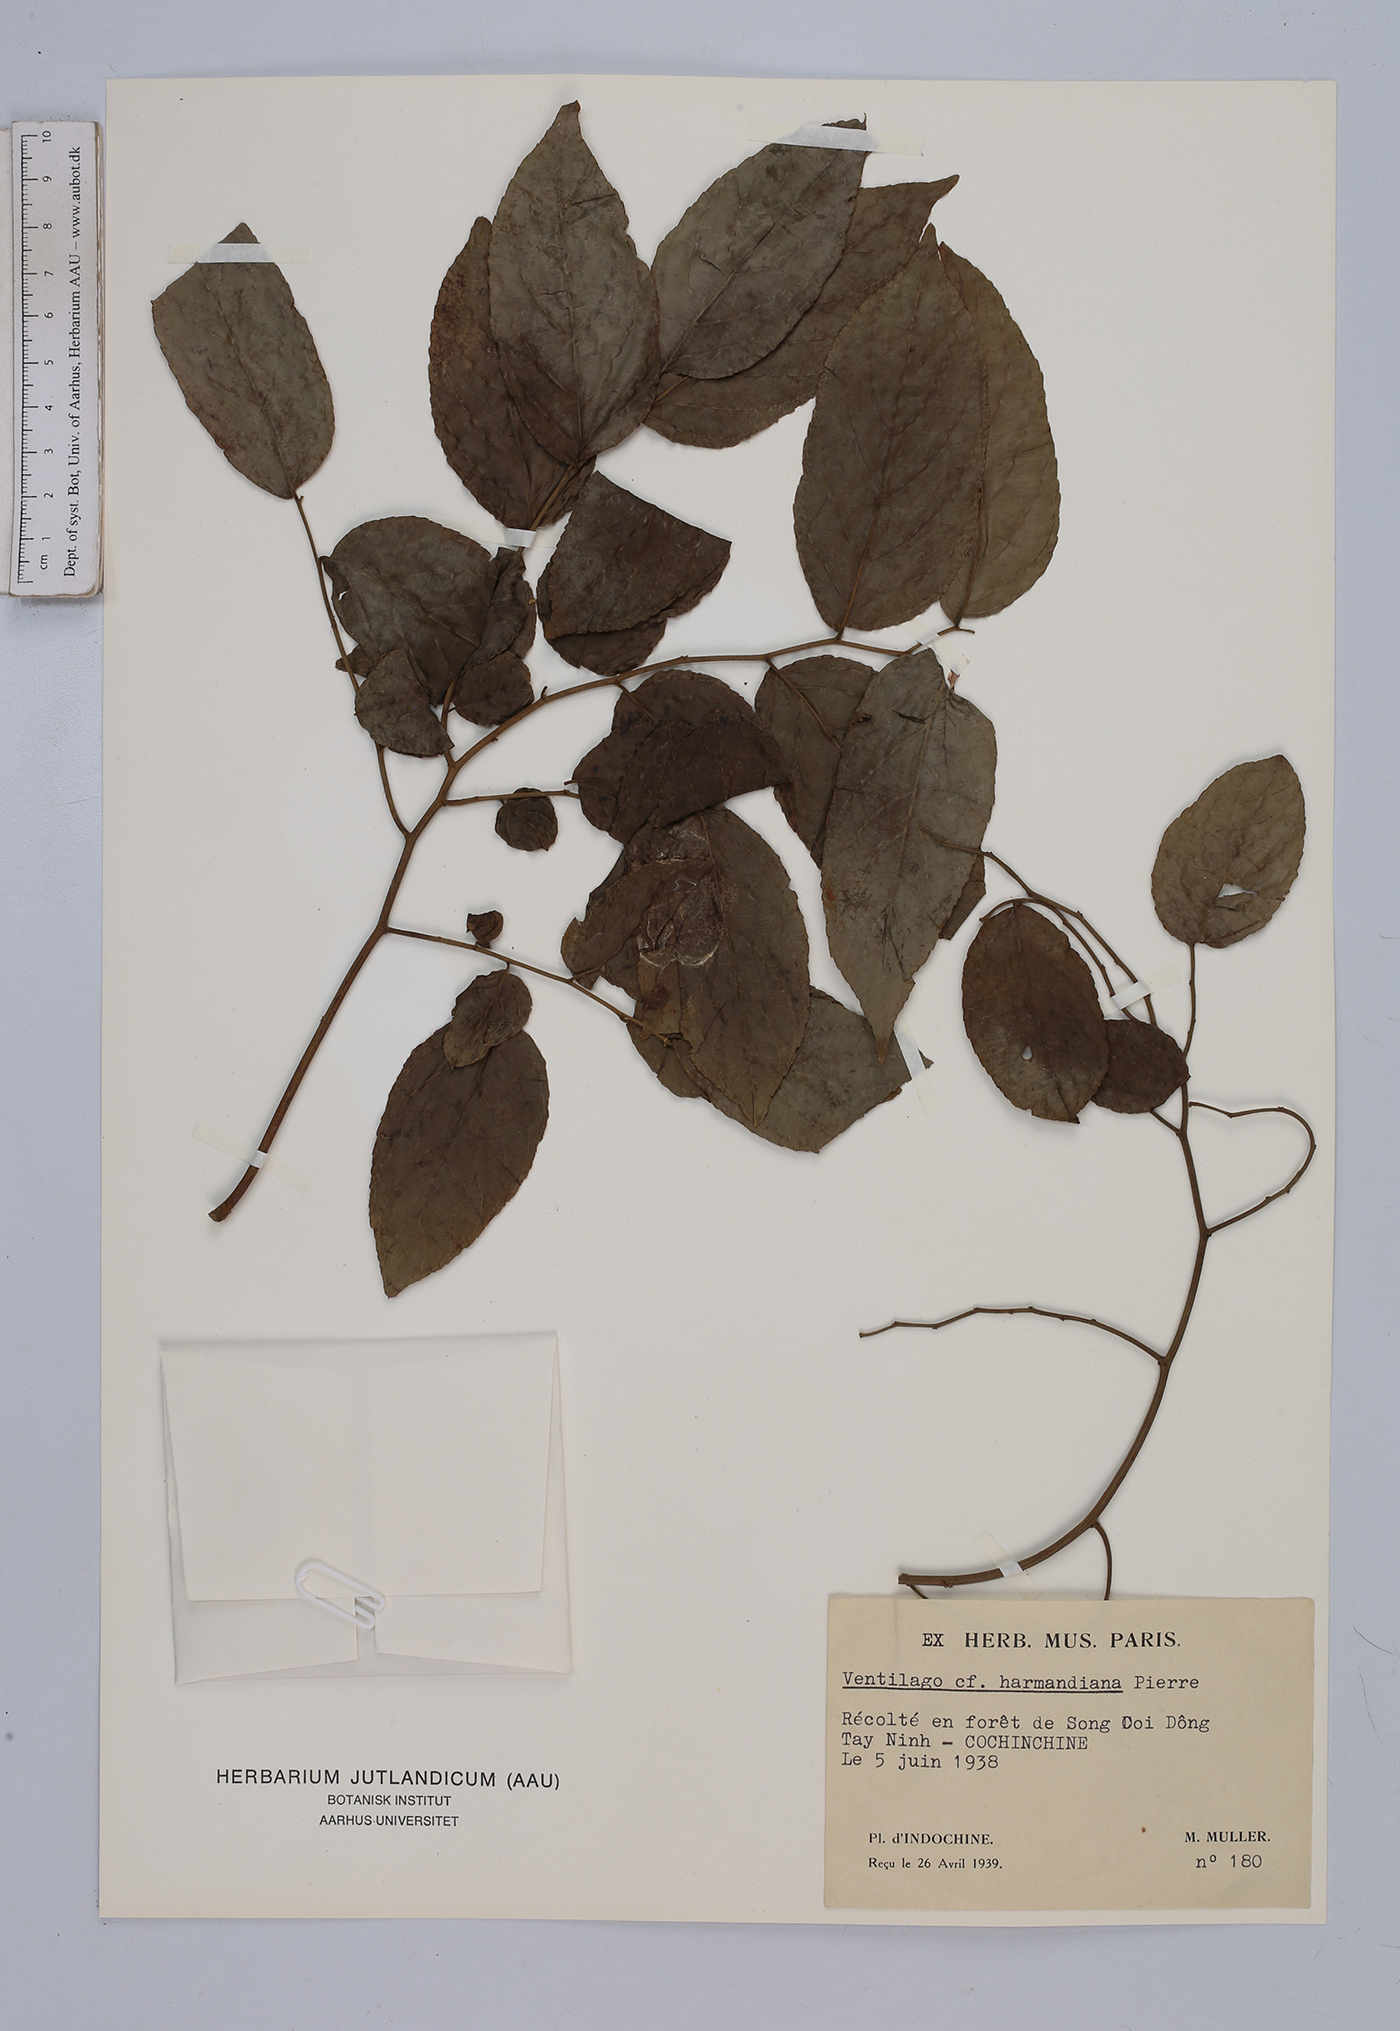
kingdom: Plantae
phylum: Tracheophyta
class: Magnoliopsida
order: Rosales
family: Rhamnaceae
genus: Ventilago
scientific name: Ventilago harmandiana
